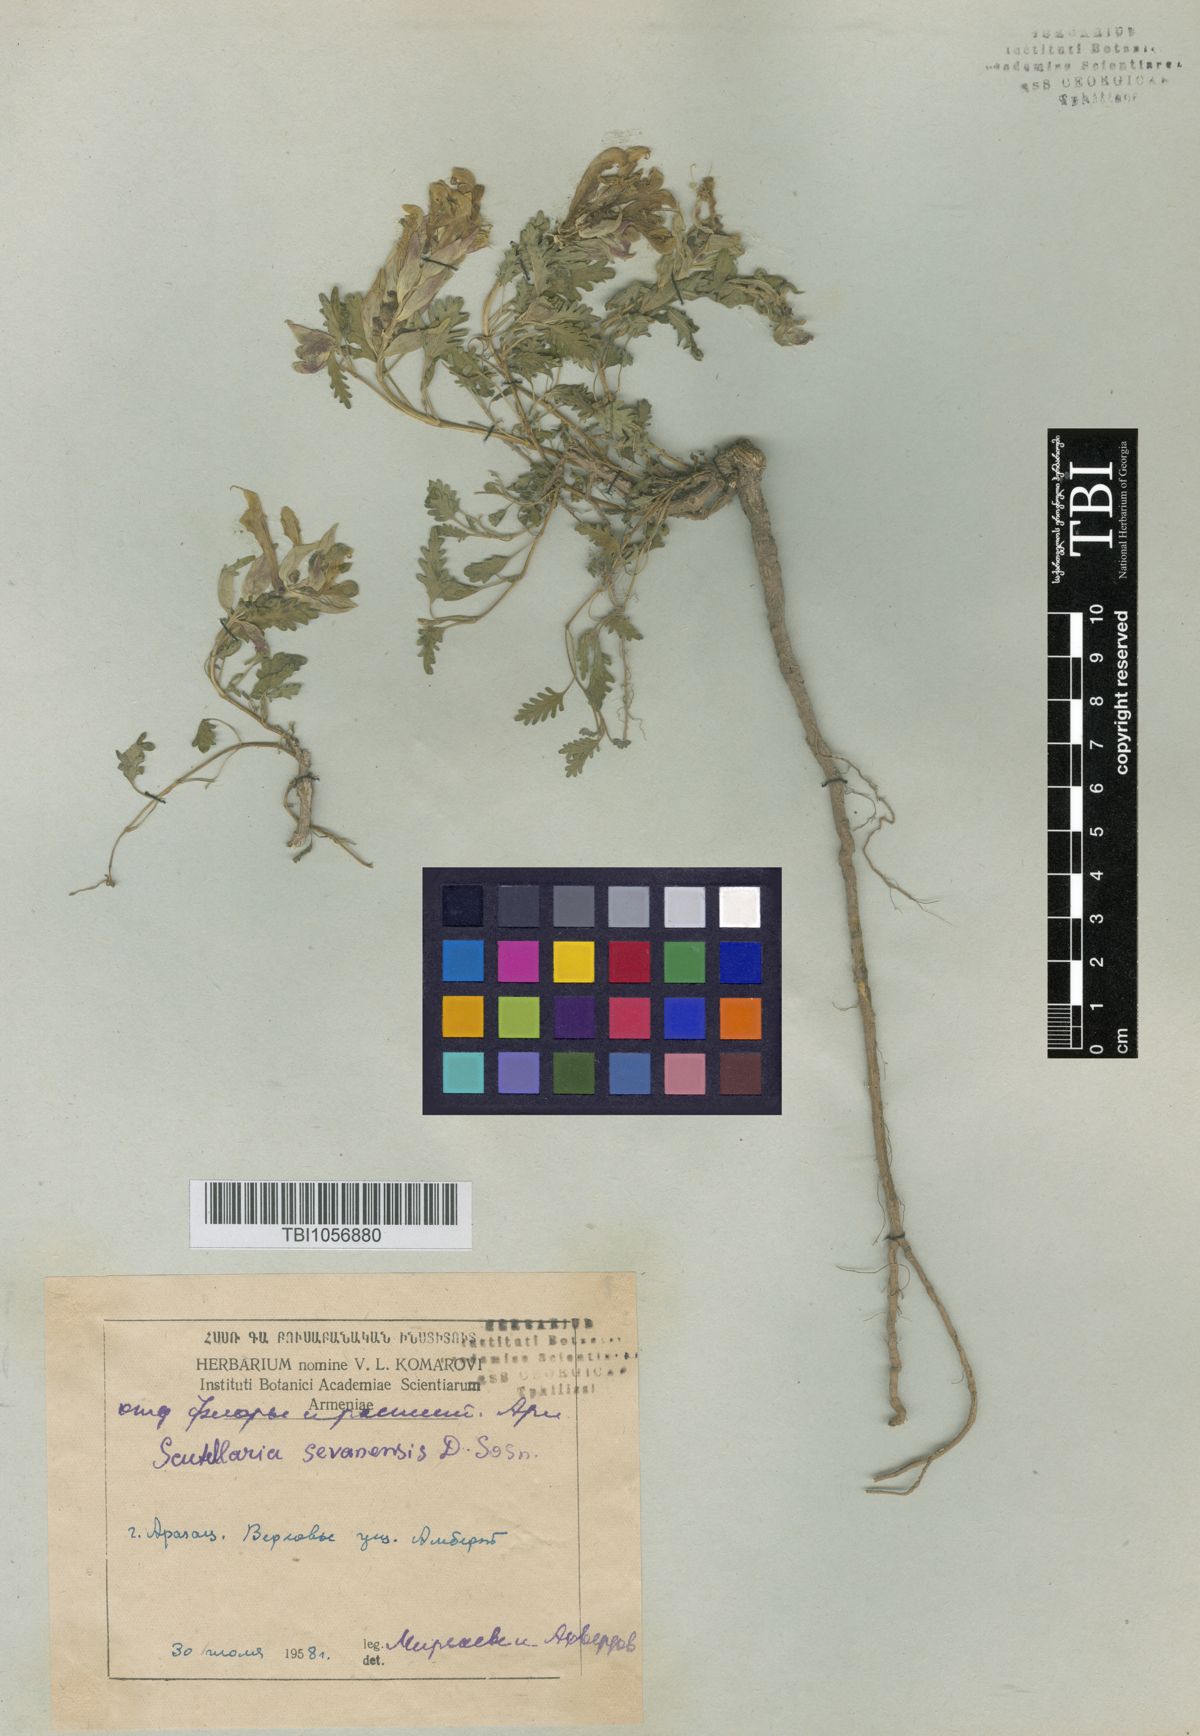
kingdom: Plantae
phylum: Tracheophyta
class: Magnoliopsida
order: Lamiales
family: Lamiaceae
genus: Scutellaria
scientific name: Scutellaria sevanensis
